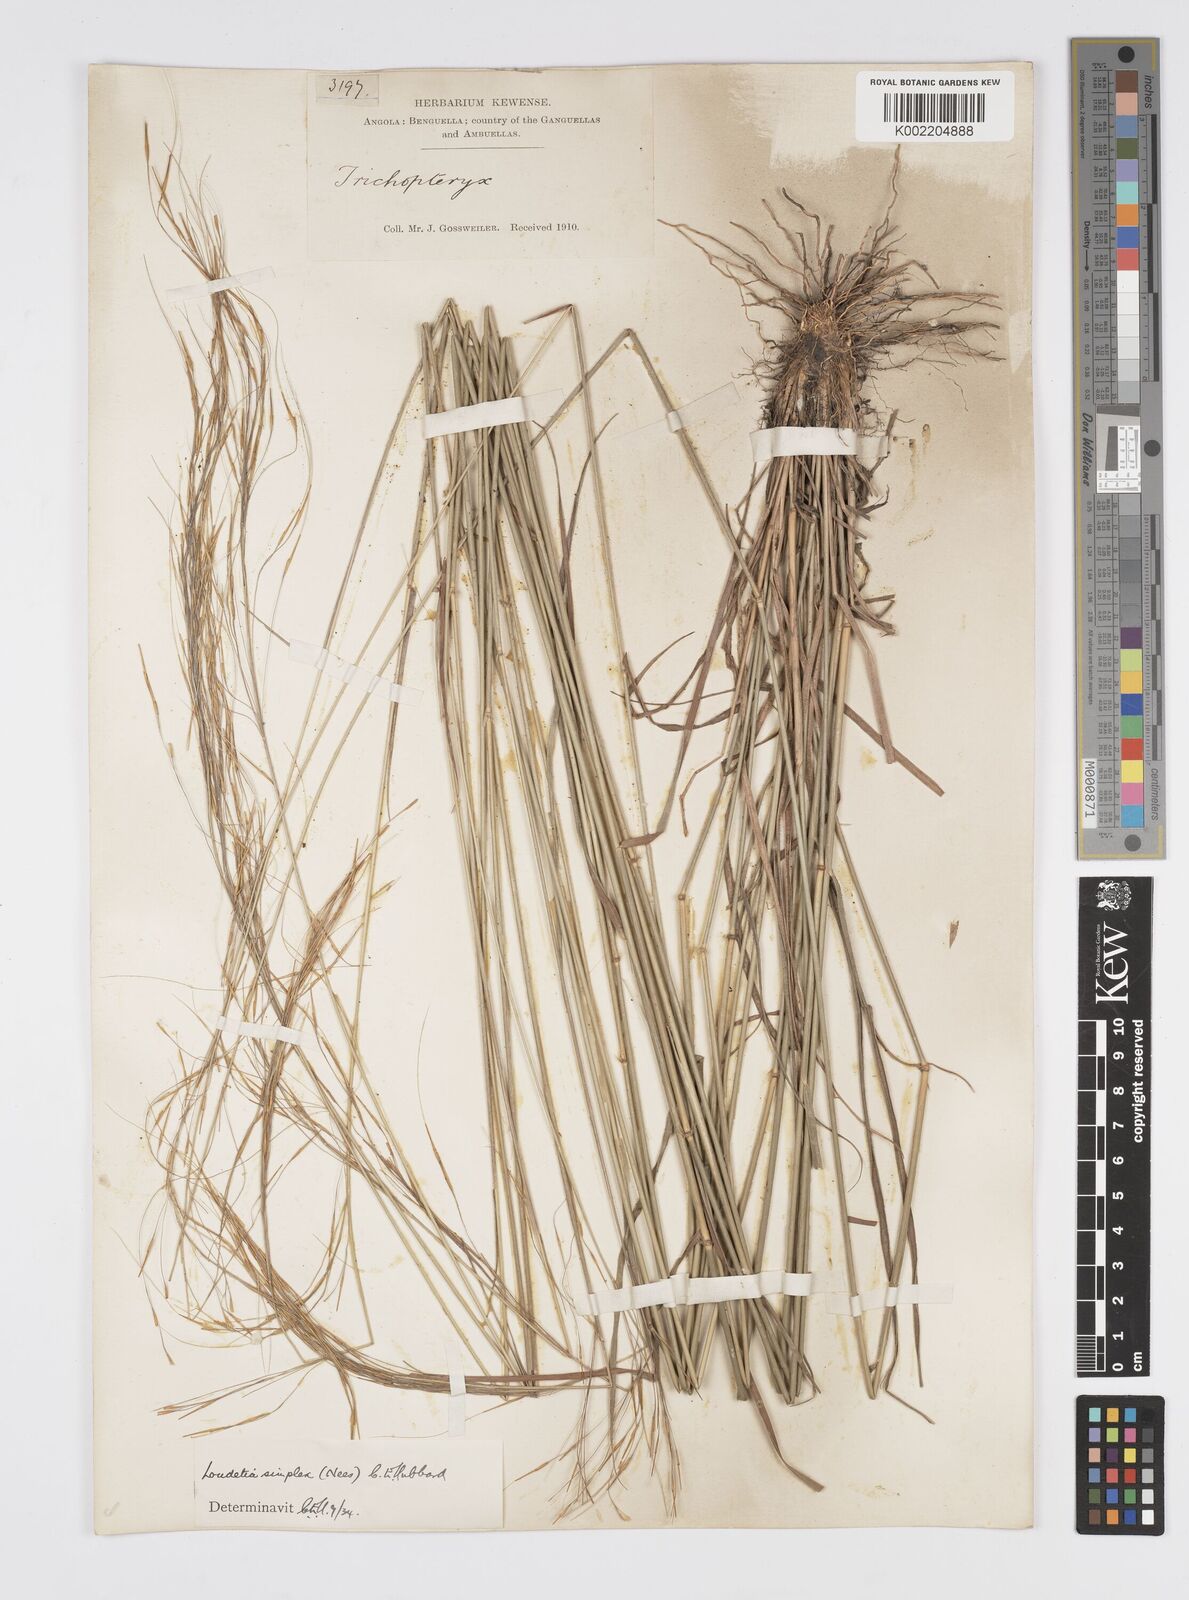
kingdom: Plantae
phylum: Tracheophyta
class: Liliopsida
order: Poales
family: Poaceae
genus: Loudetia
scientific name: Loudetia simplex
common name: Common russet grass
